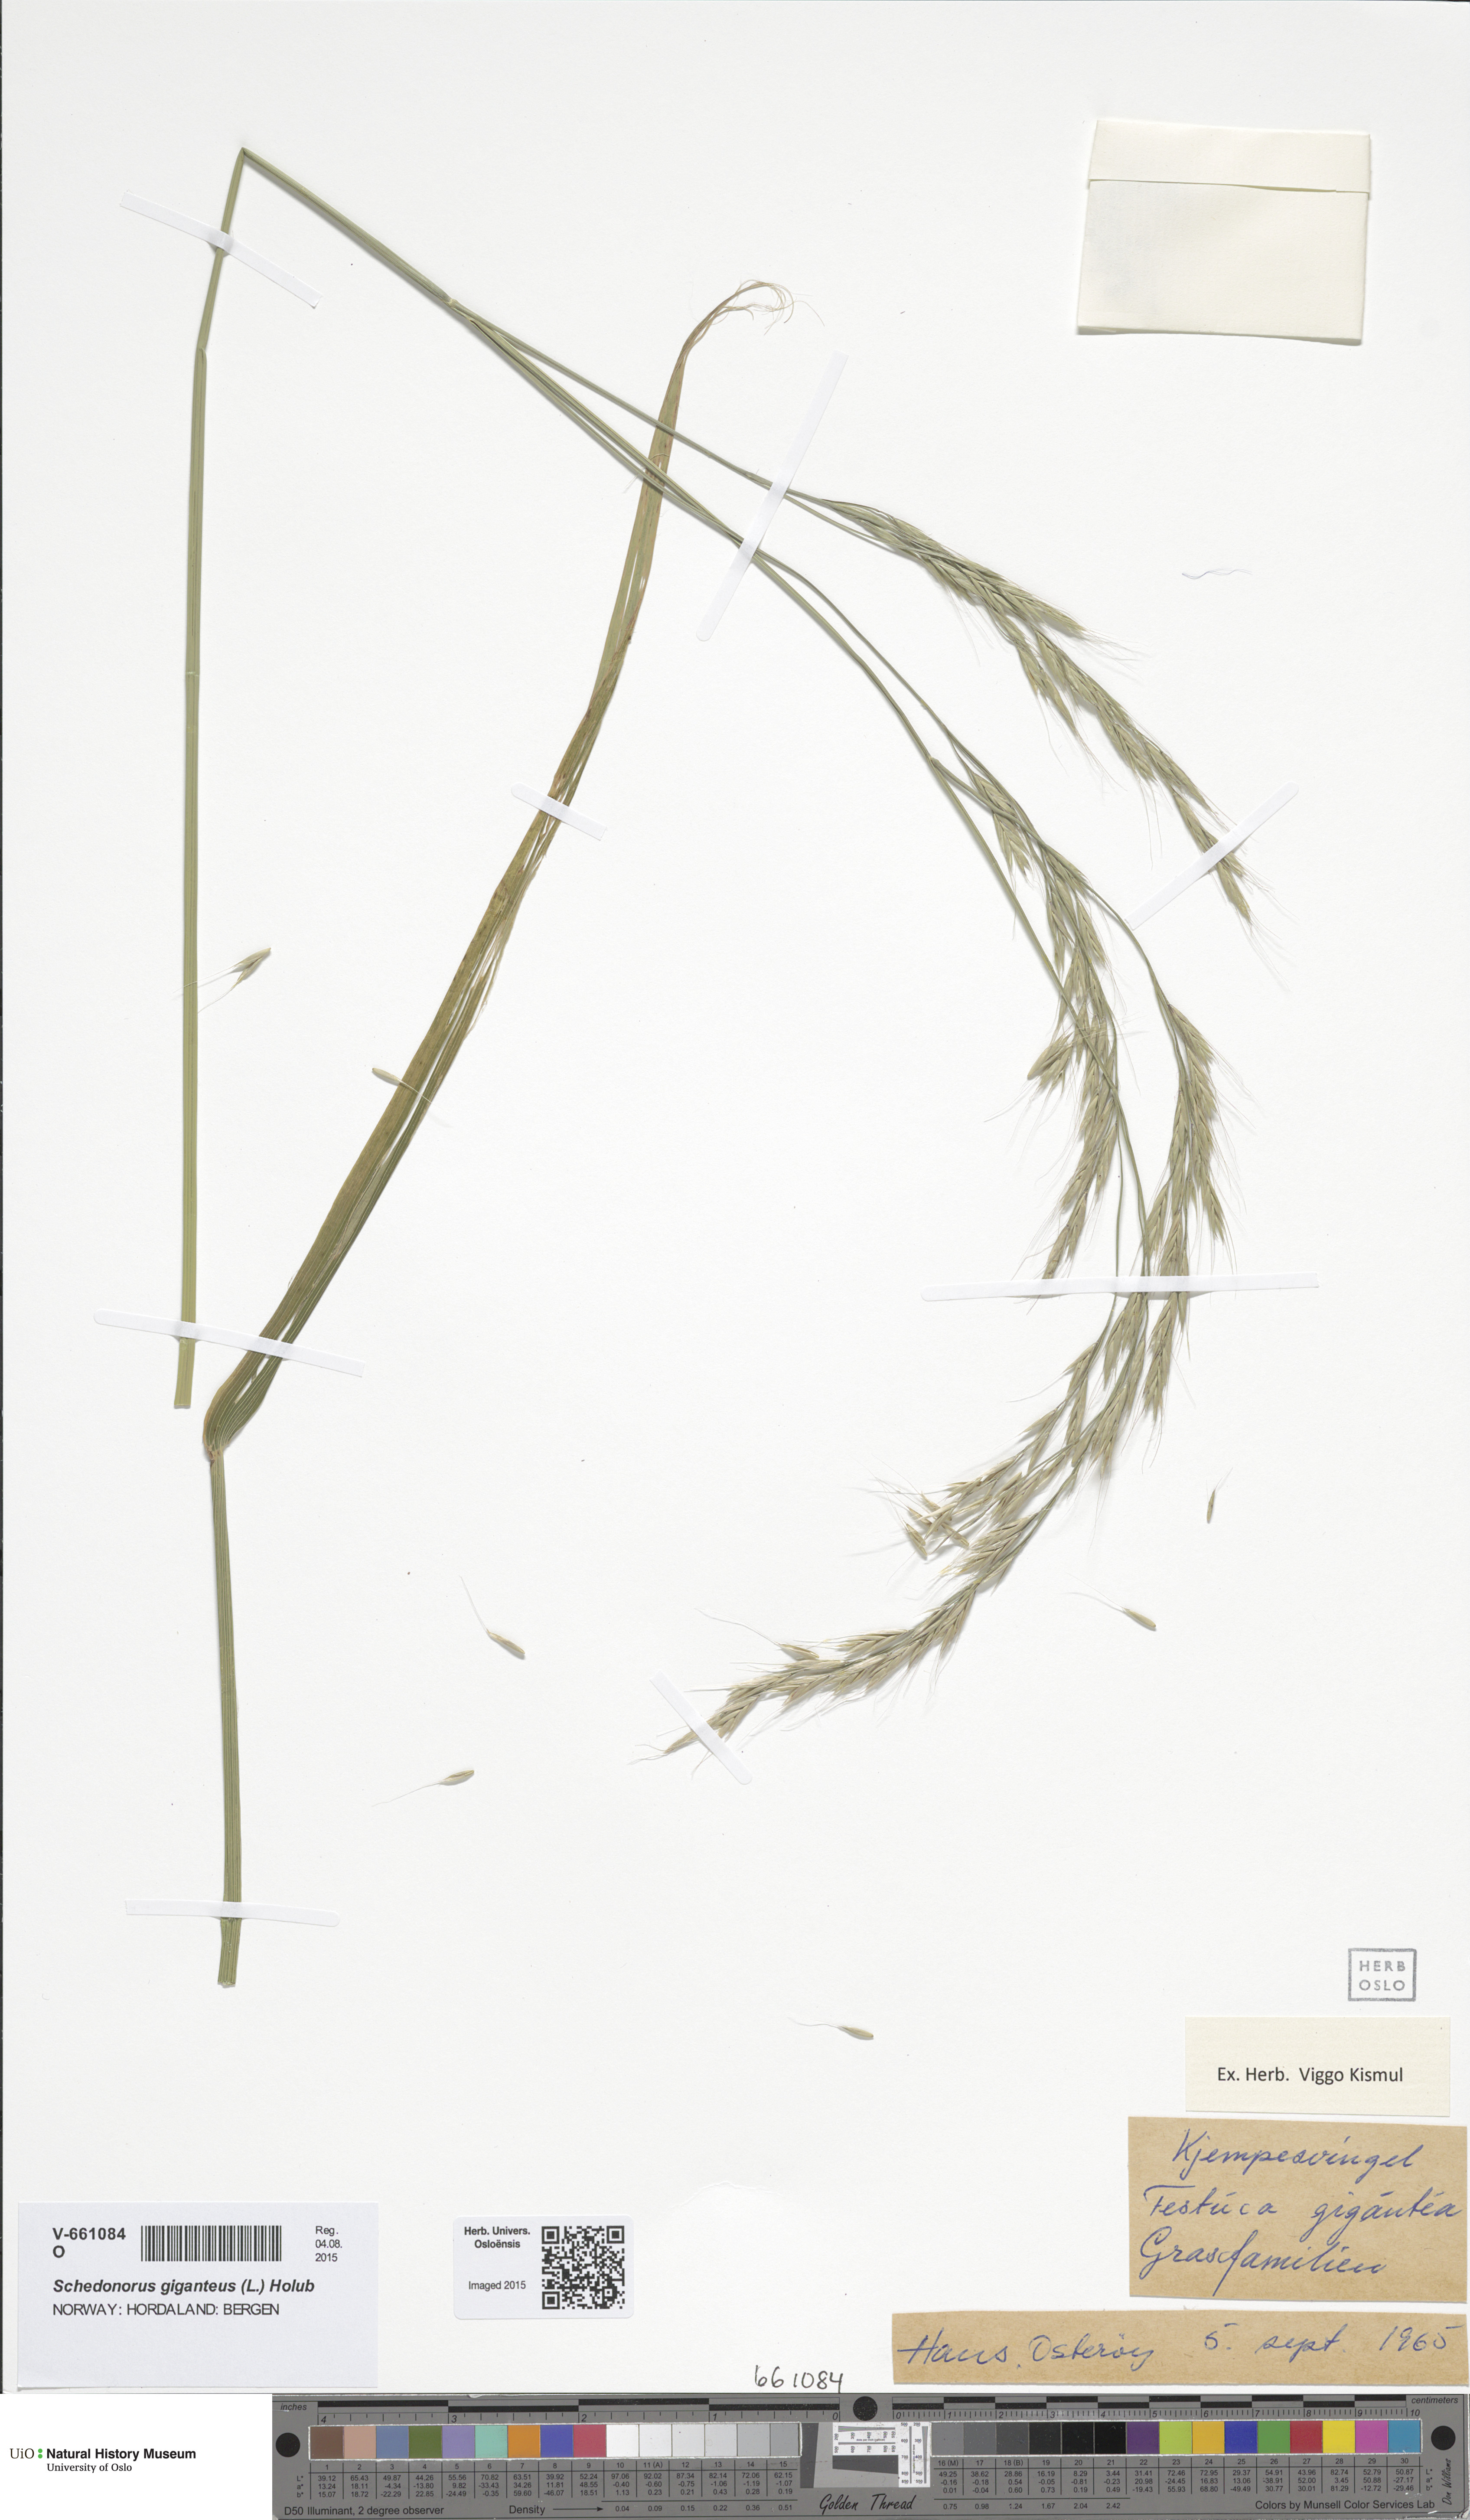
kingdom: Plantae
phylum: Tracheophyta
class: Liliopsida
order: Poales
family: Poaceae
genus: Lolium
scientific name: Lolium giganteum
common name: Giant fescue
